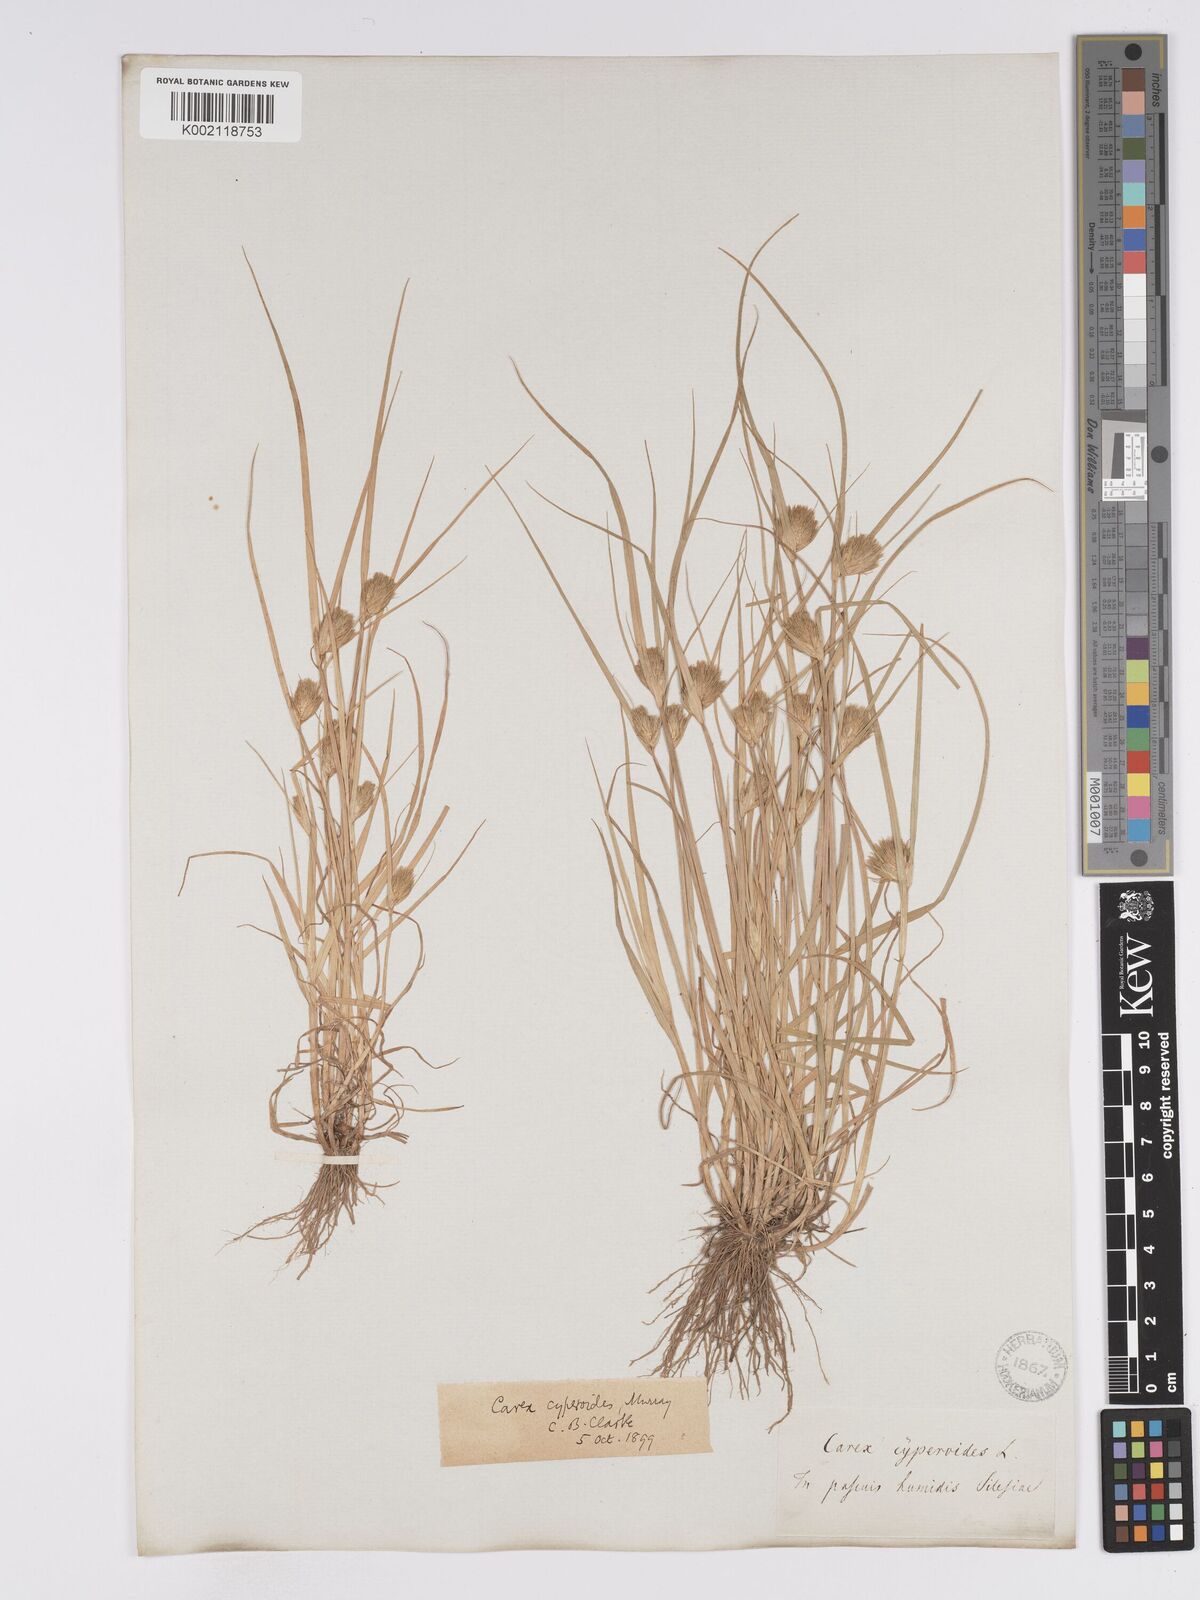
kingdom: Plantae
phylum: Tracheophyta
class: Liliopsida
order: Poales
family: Cyperaceae
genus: Carex
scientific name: Carex bohemica
